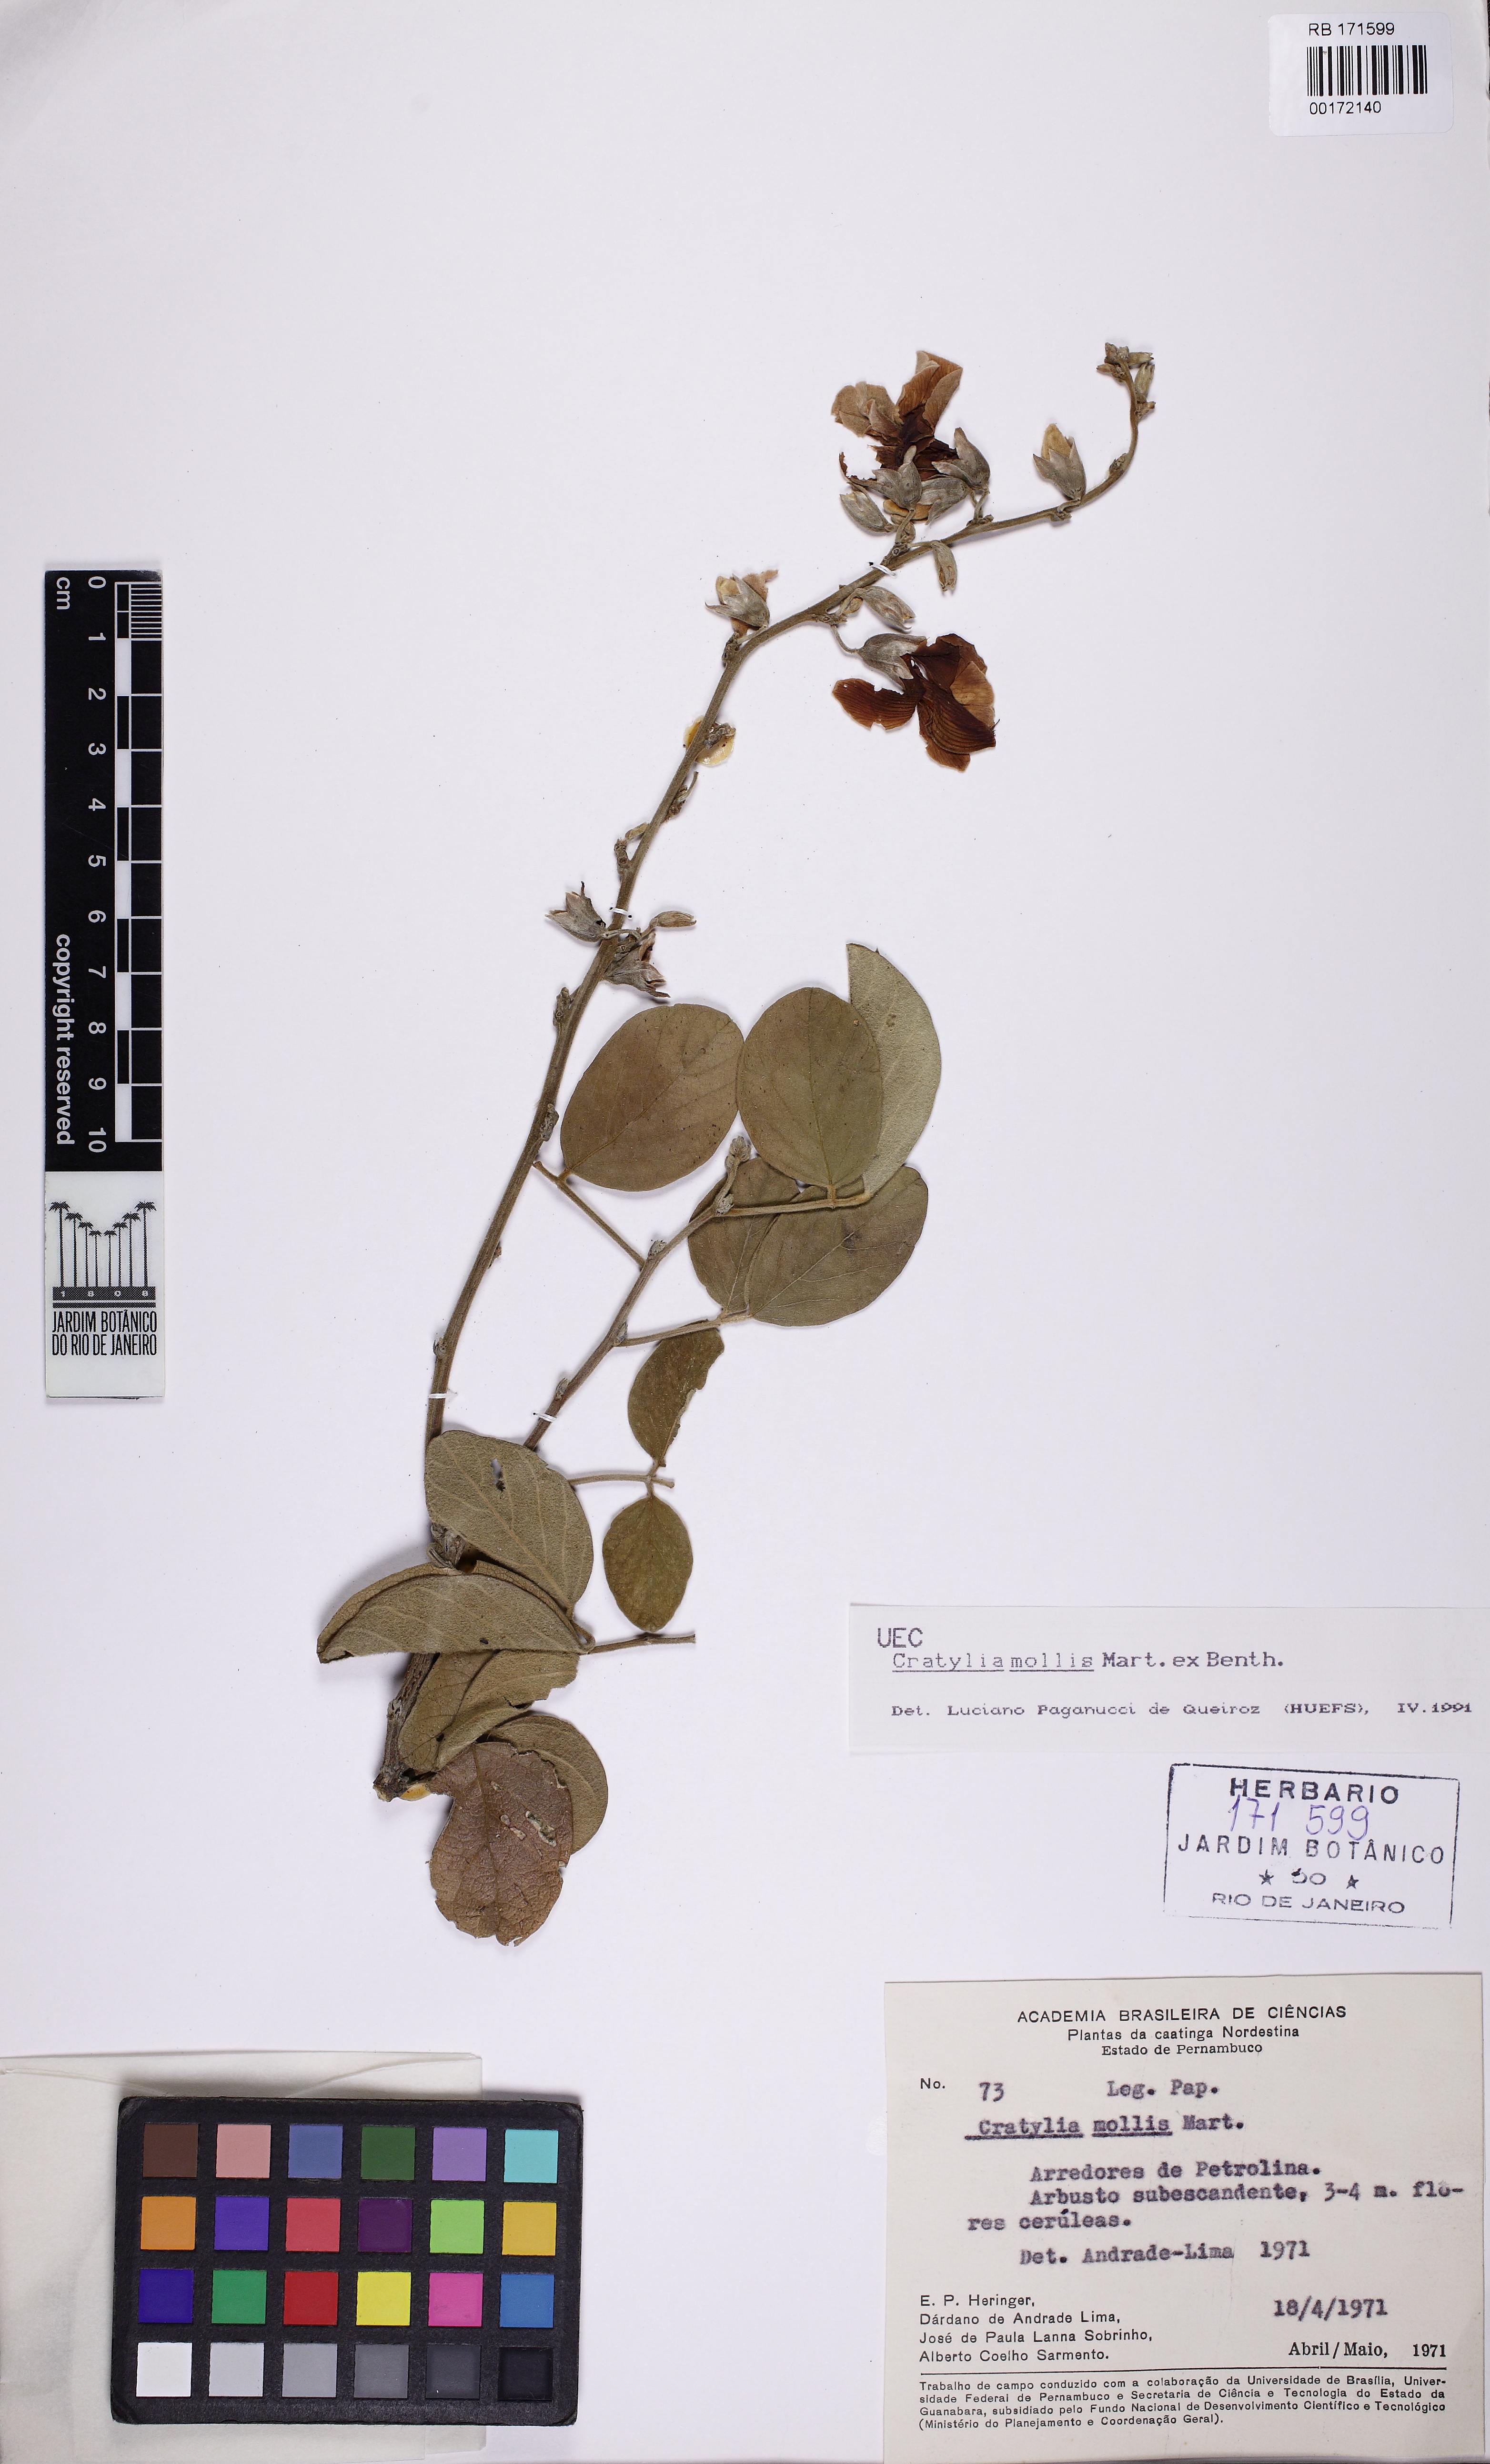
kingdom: Plantae
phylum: Tracheophyta
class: Magnoliopsida
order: Fabales
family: Fabaceae
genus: Cratylia
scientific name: Cratylia mollis
